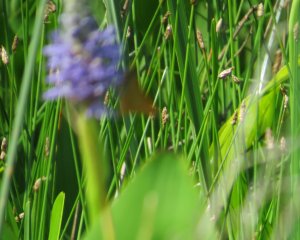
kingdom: Animalia
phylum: Arthropoda
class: Insecta
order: Lepidoptera
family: Hesperiidae
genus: Problema
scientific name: Problema bulenta
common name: Rare Skipper
